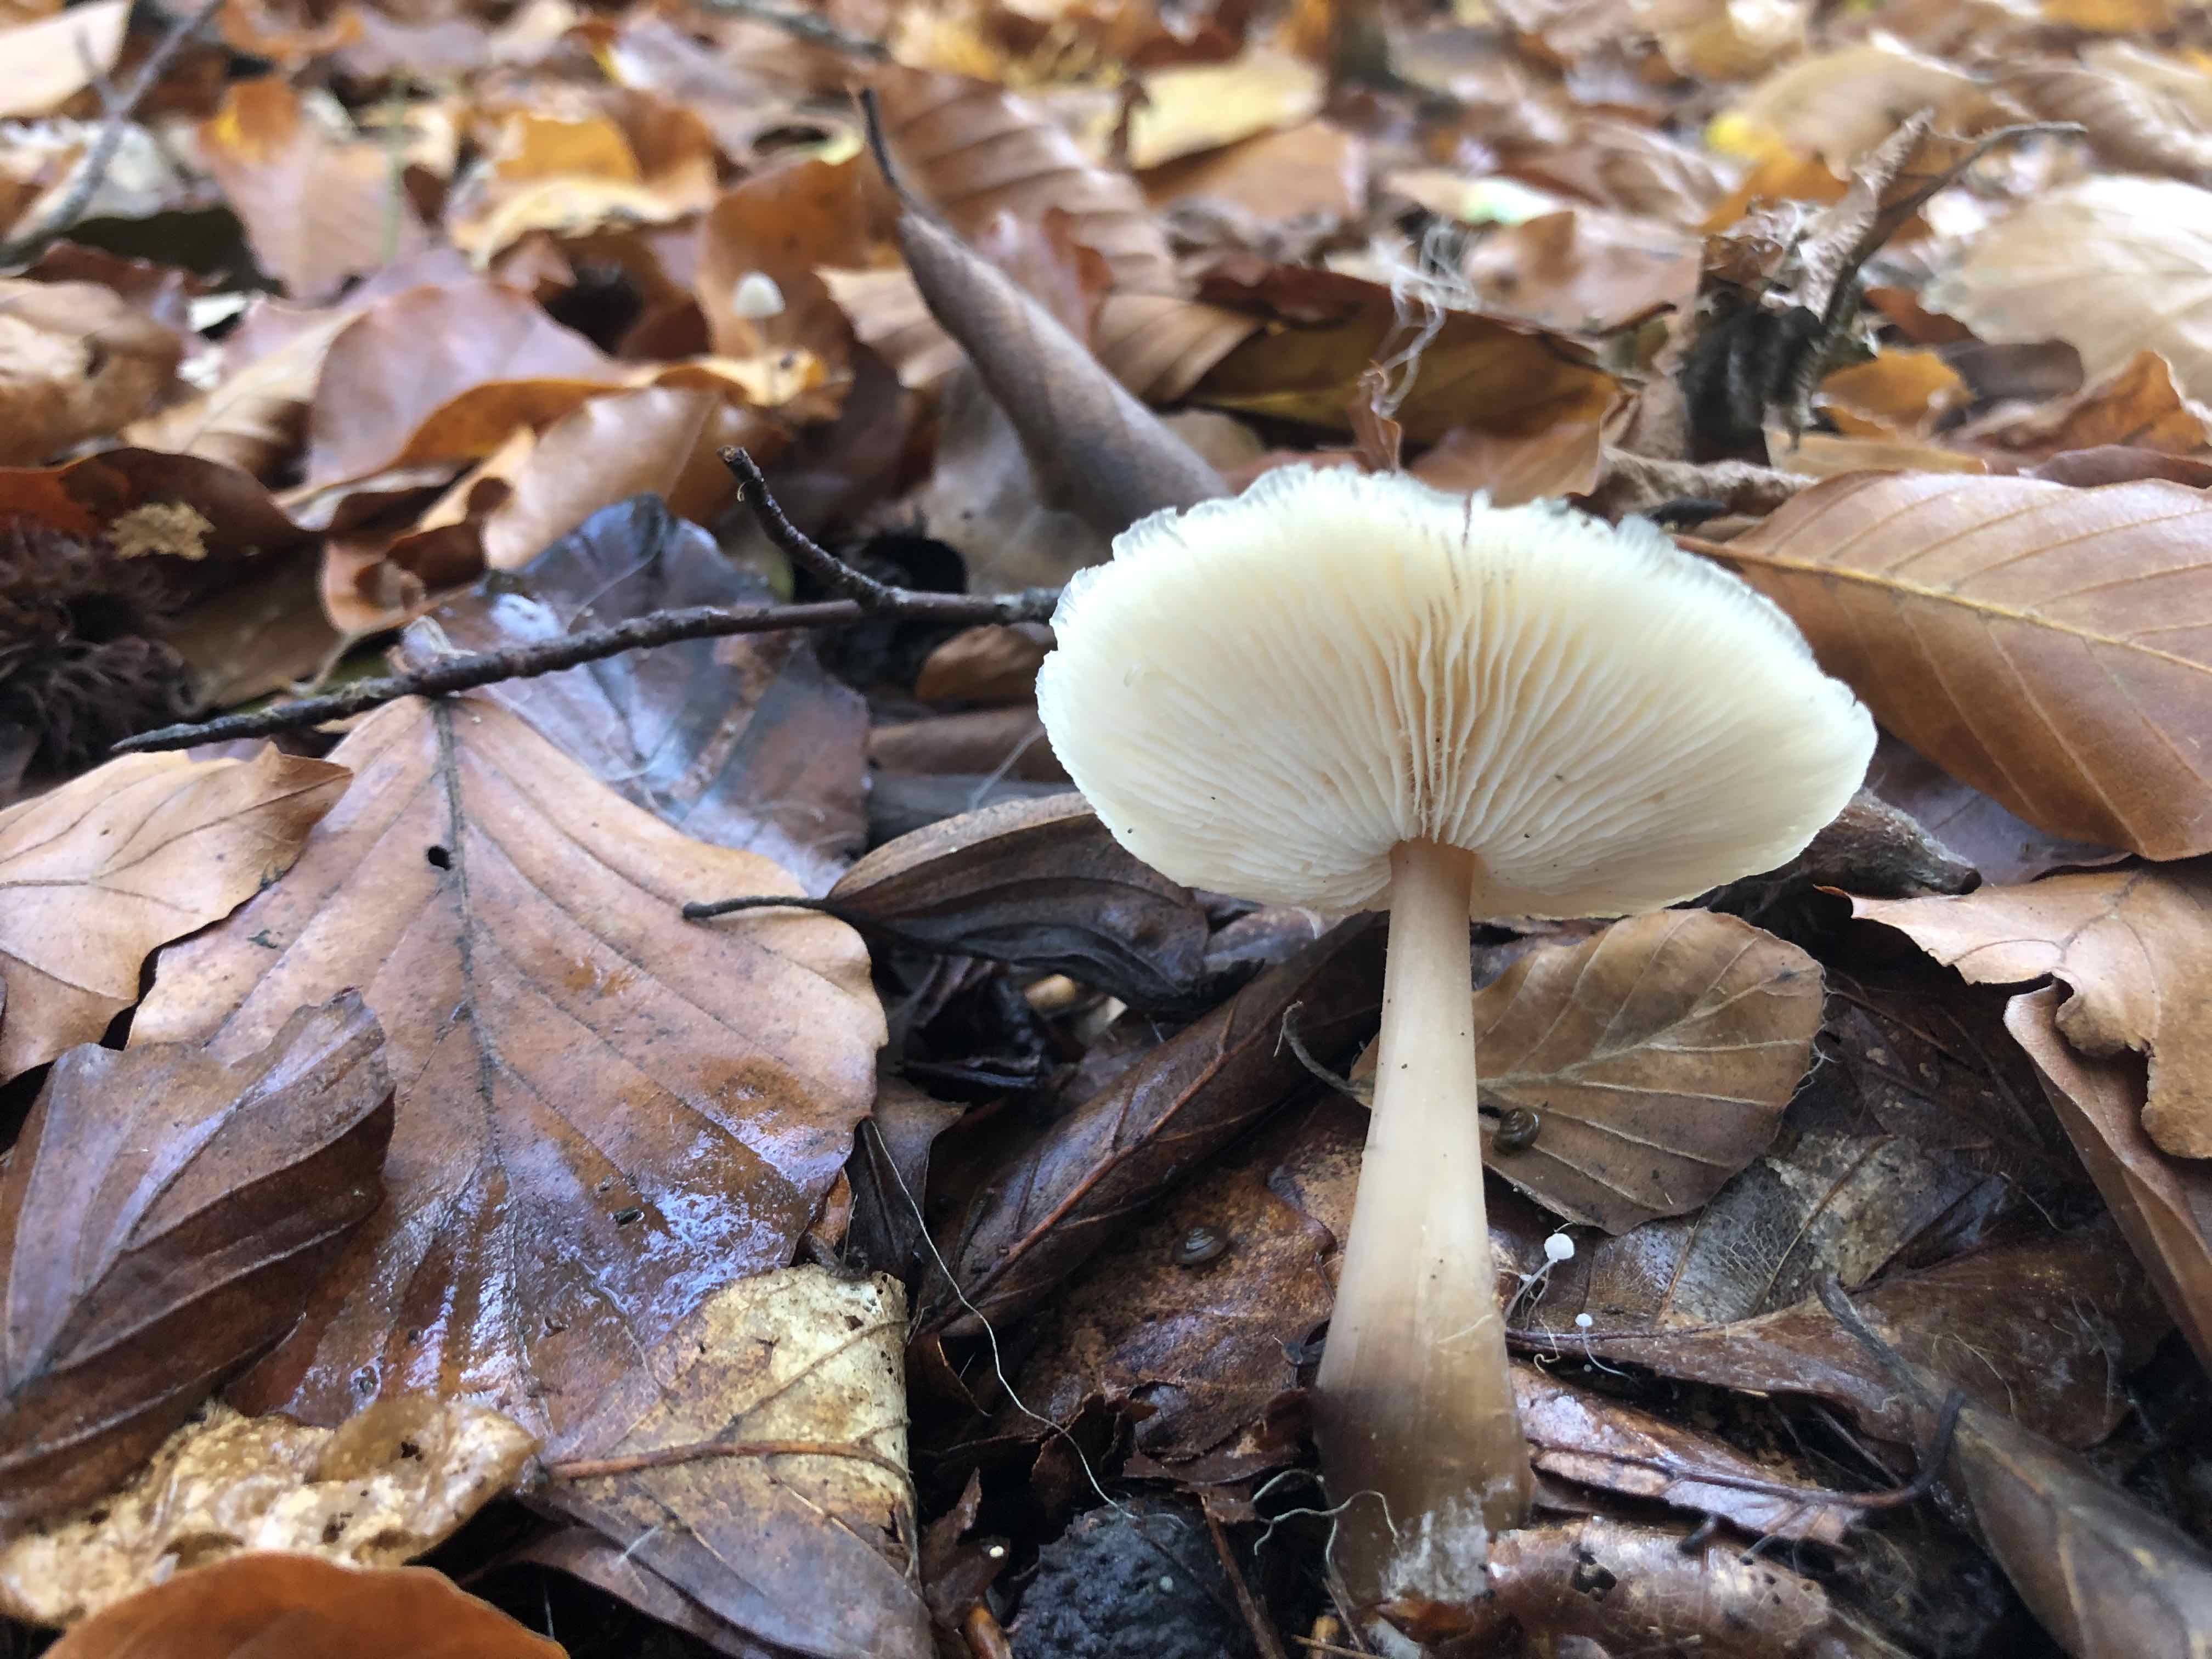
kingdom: Fungi
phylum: Basidiomycota
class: Agaricomycetes
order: Agaricales
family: Omphalotaceae
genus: Rhodocollybia
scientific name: Rhodocollybia asema
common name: horngrå fladhat
